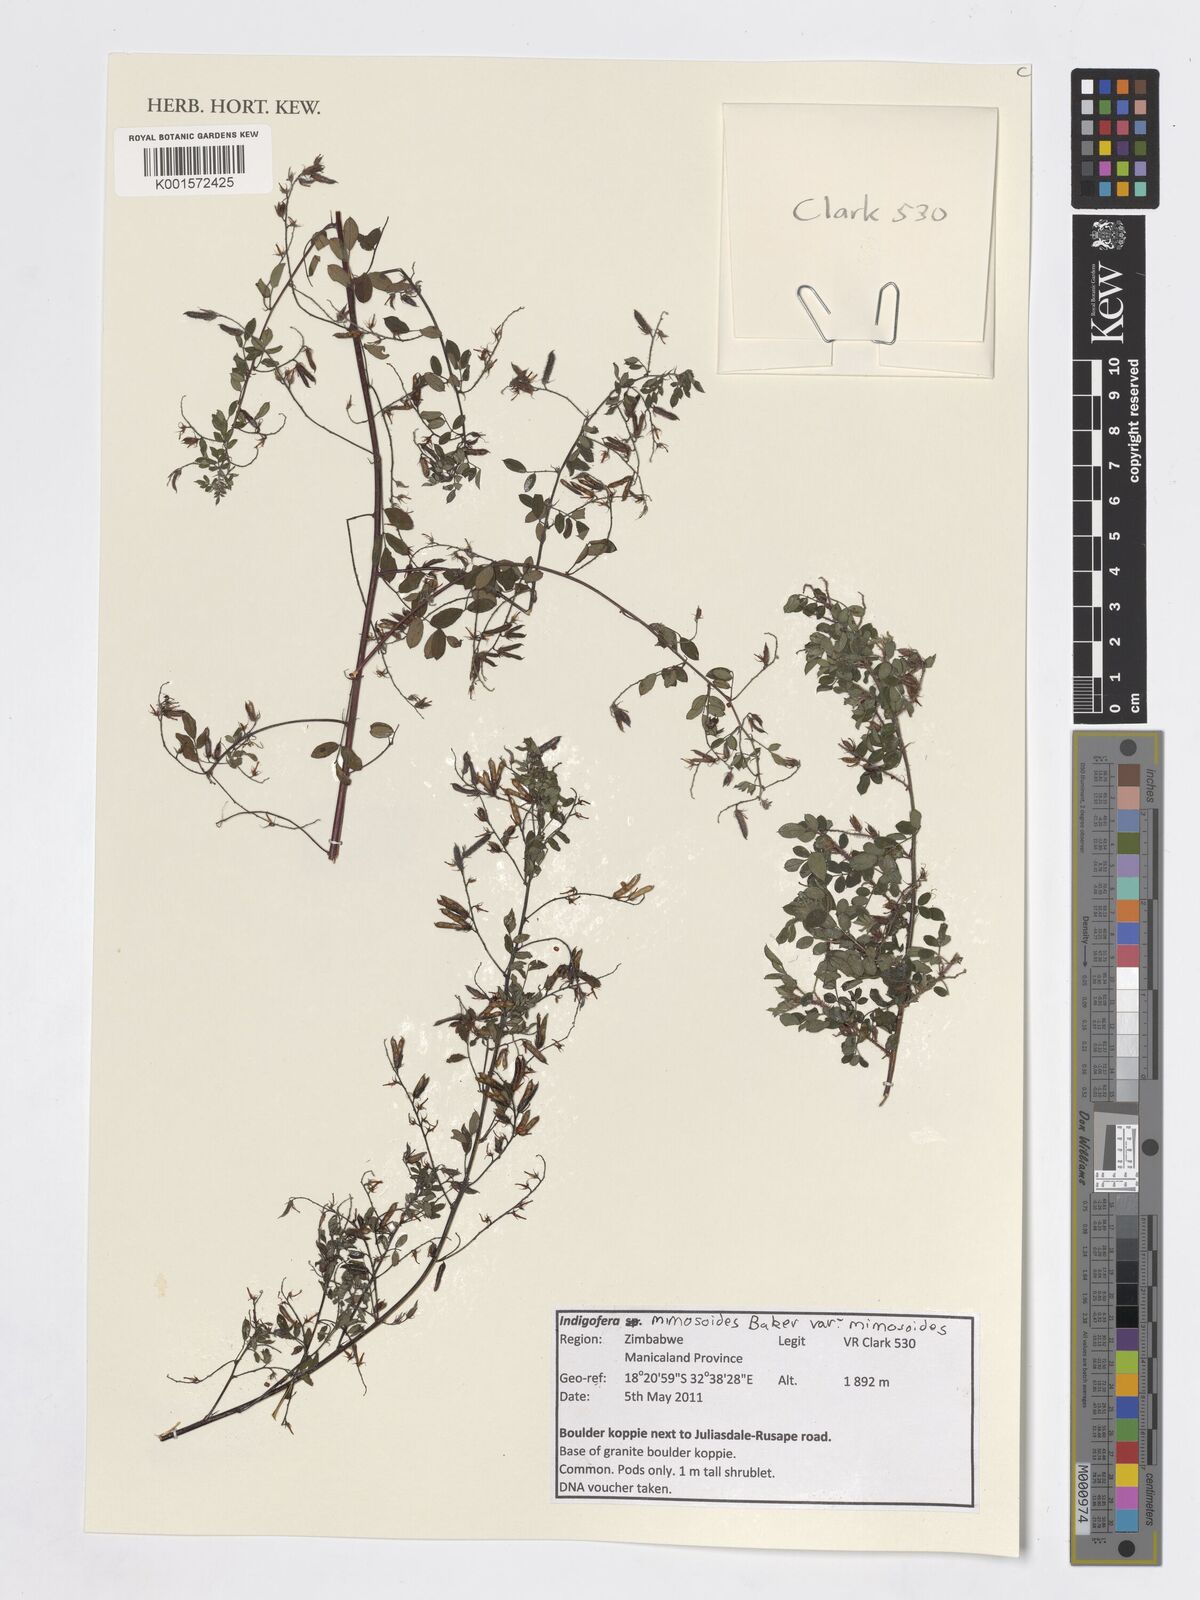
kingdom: Plantae
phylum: Tracheophyta
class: Magnoliopsida
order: Fabales
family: Fabaceae
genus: Indigofera
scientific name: Indigofera mimosoides
